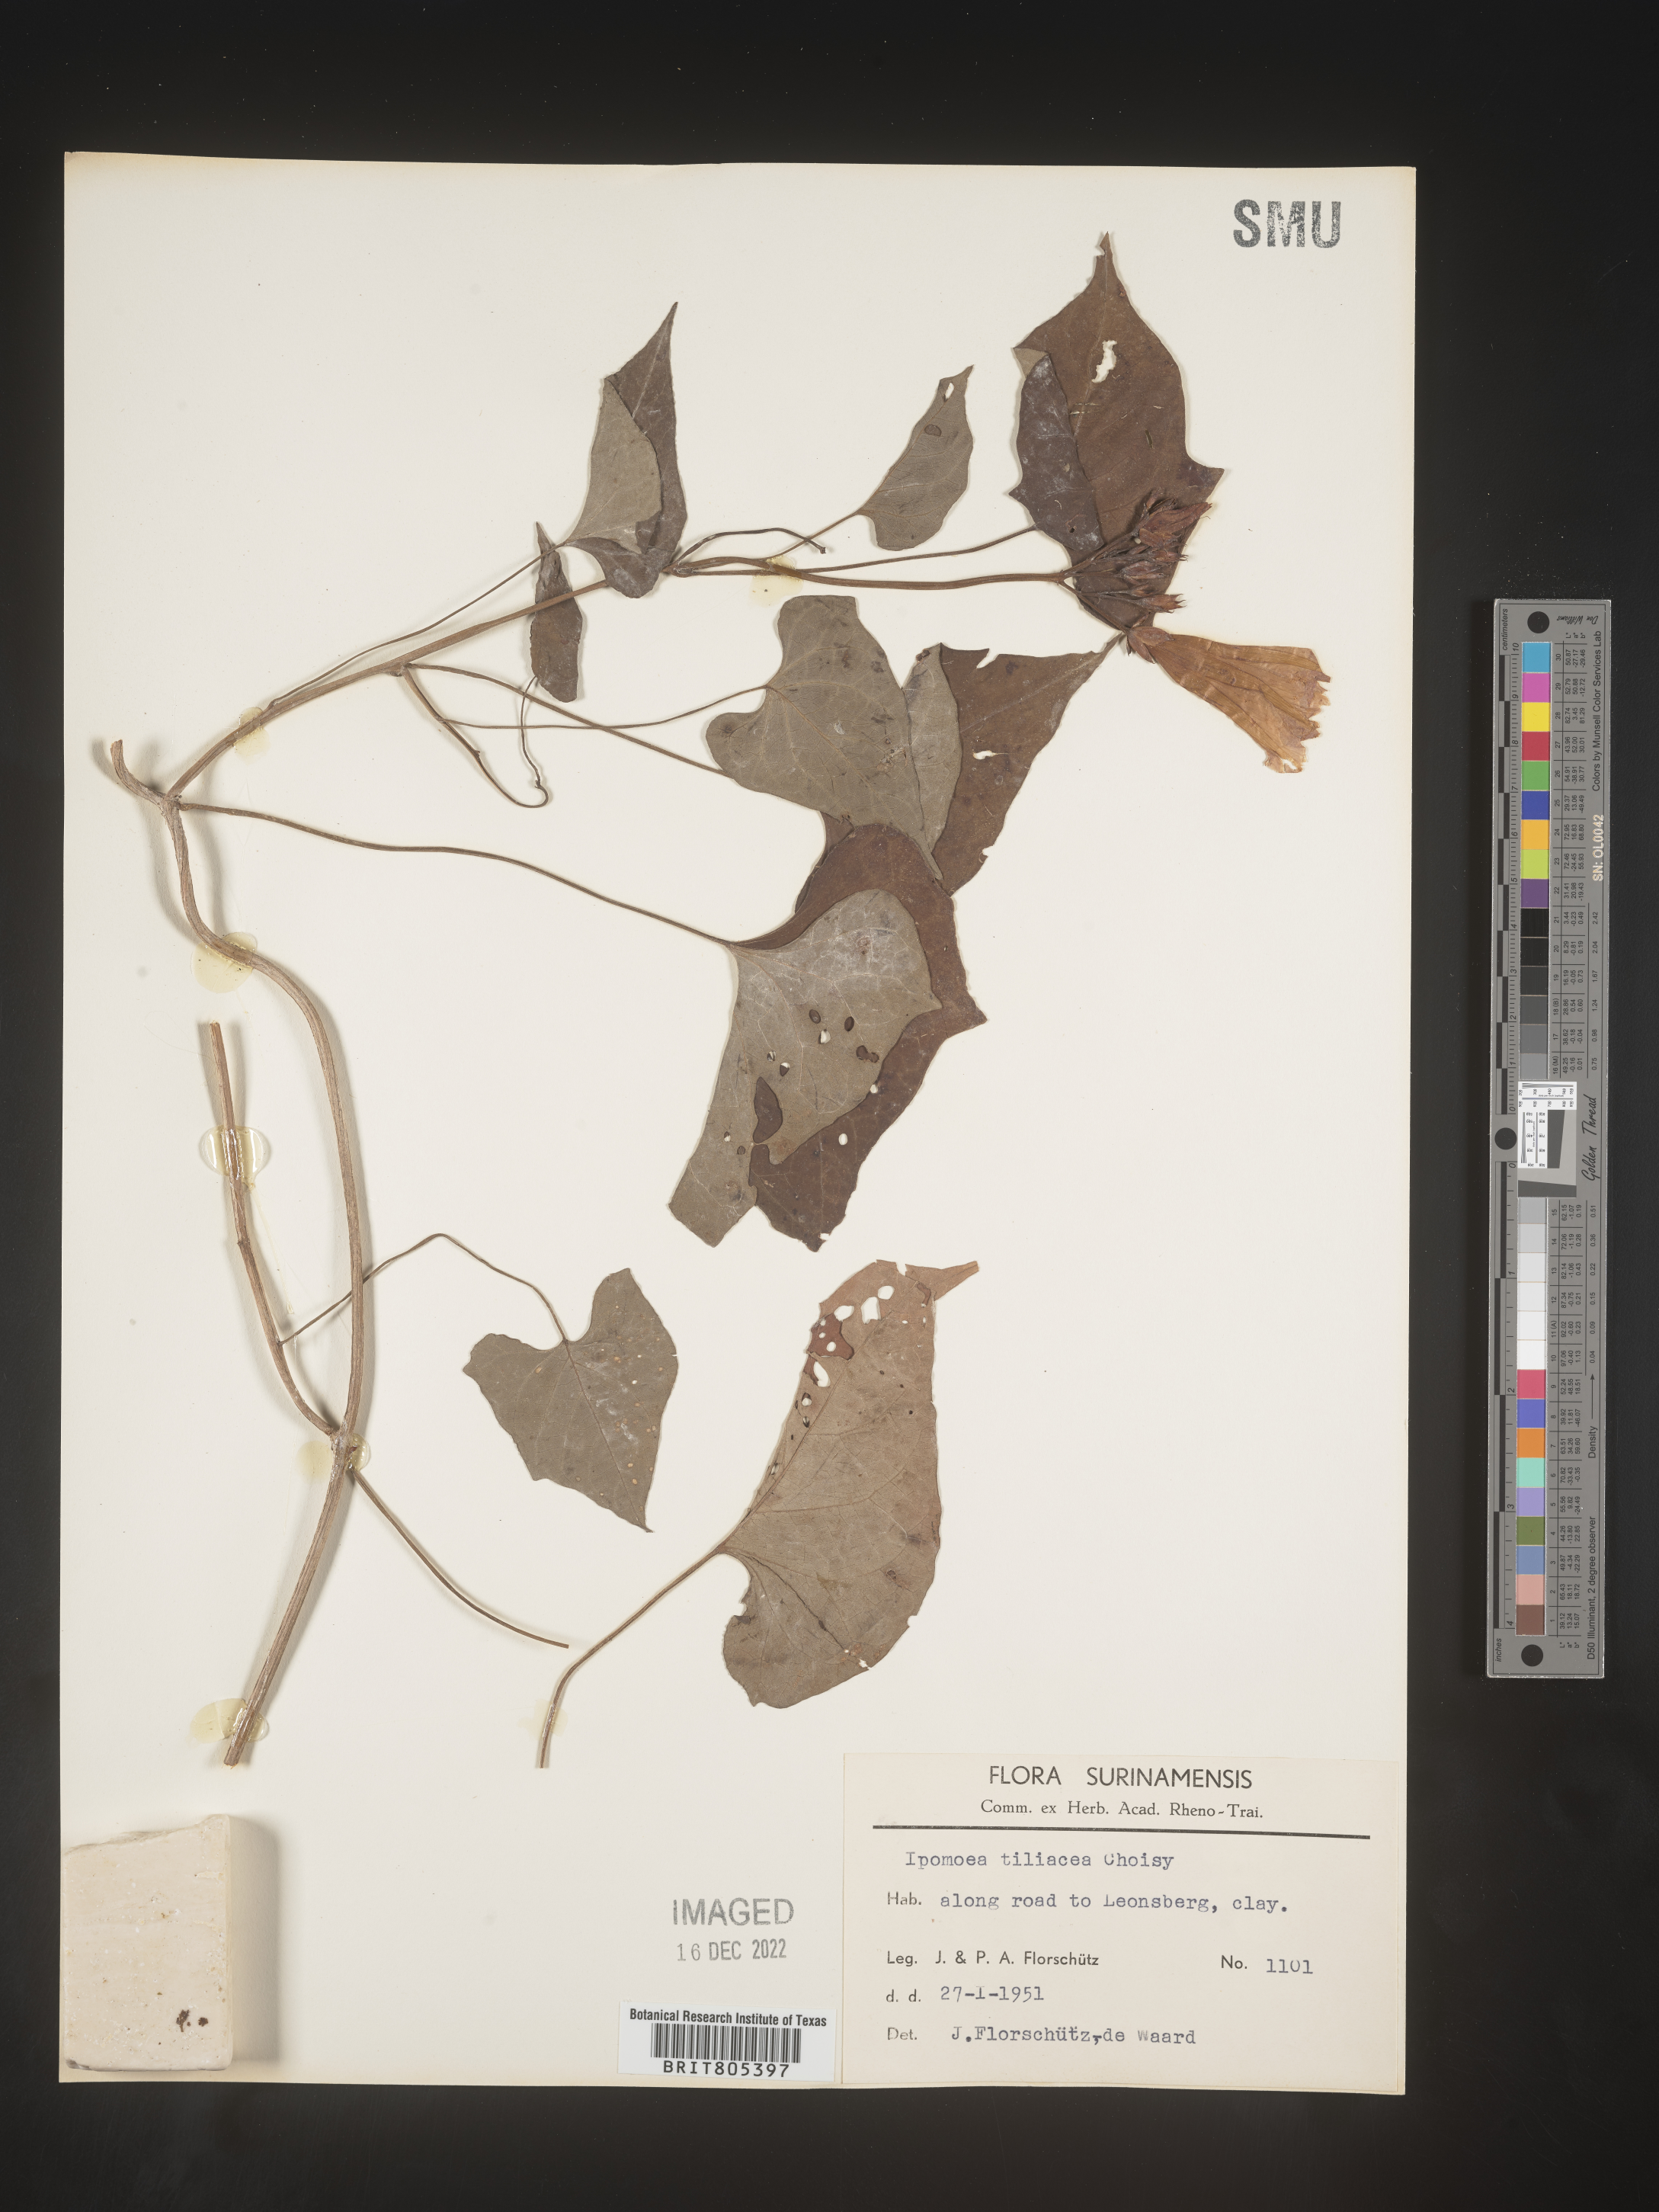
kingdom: Plantae
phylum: Tracheophyta
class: Magnoliopsida
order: Solanales
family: Convolvulaceae
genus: Ipomoea
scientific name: Ipomoea
